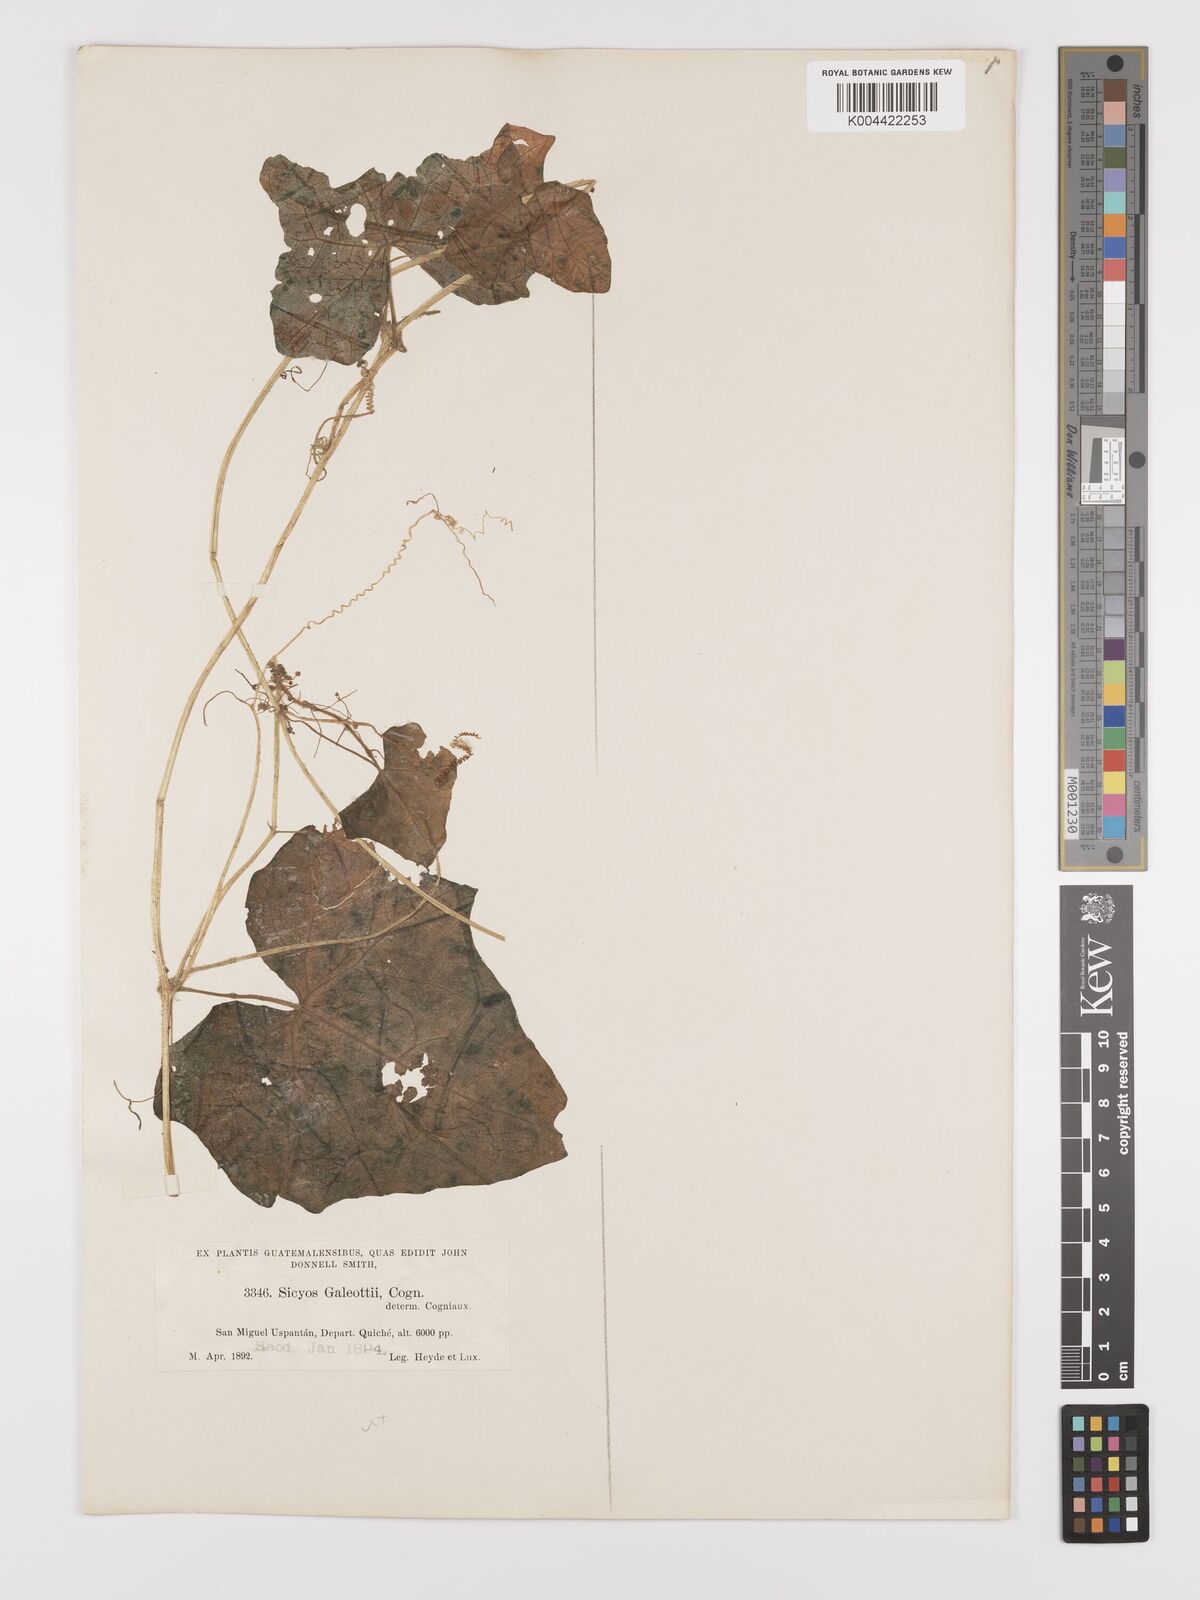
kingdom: Plantae
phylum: Tracheophyta
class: Magnoliopsida
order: Cucurbitales
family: Cucurbitaceae
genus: Parasicyos
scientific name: Parasicyos
